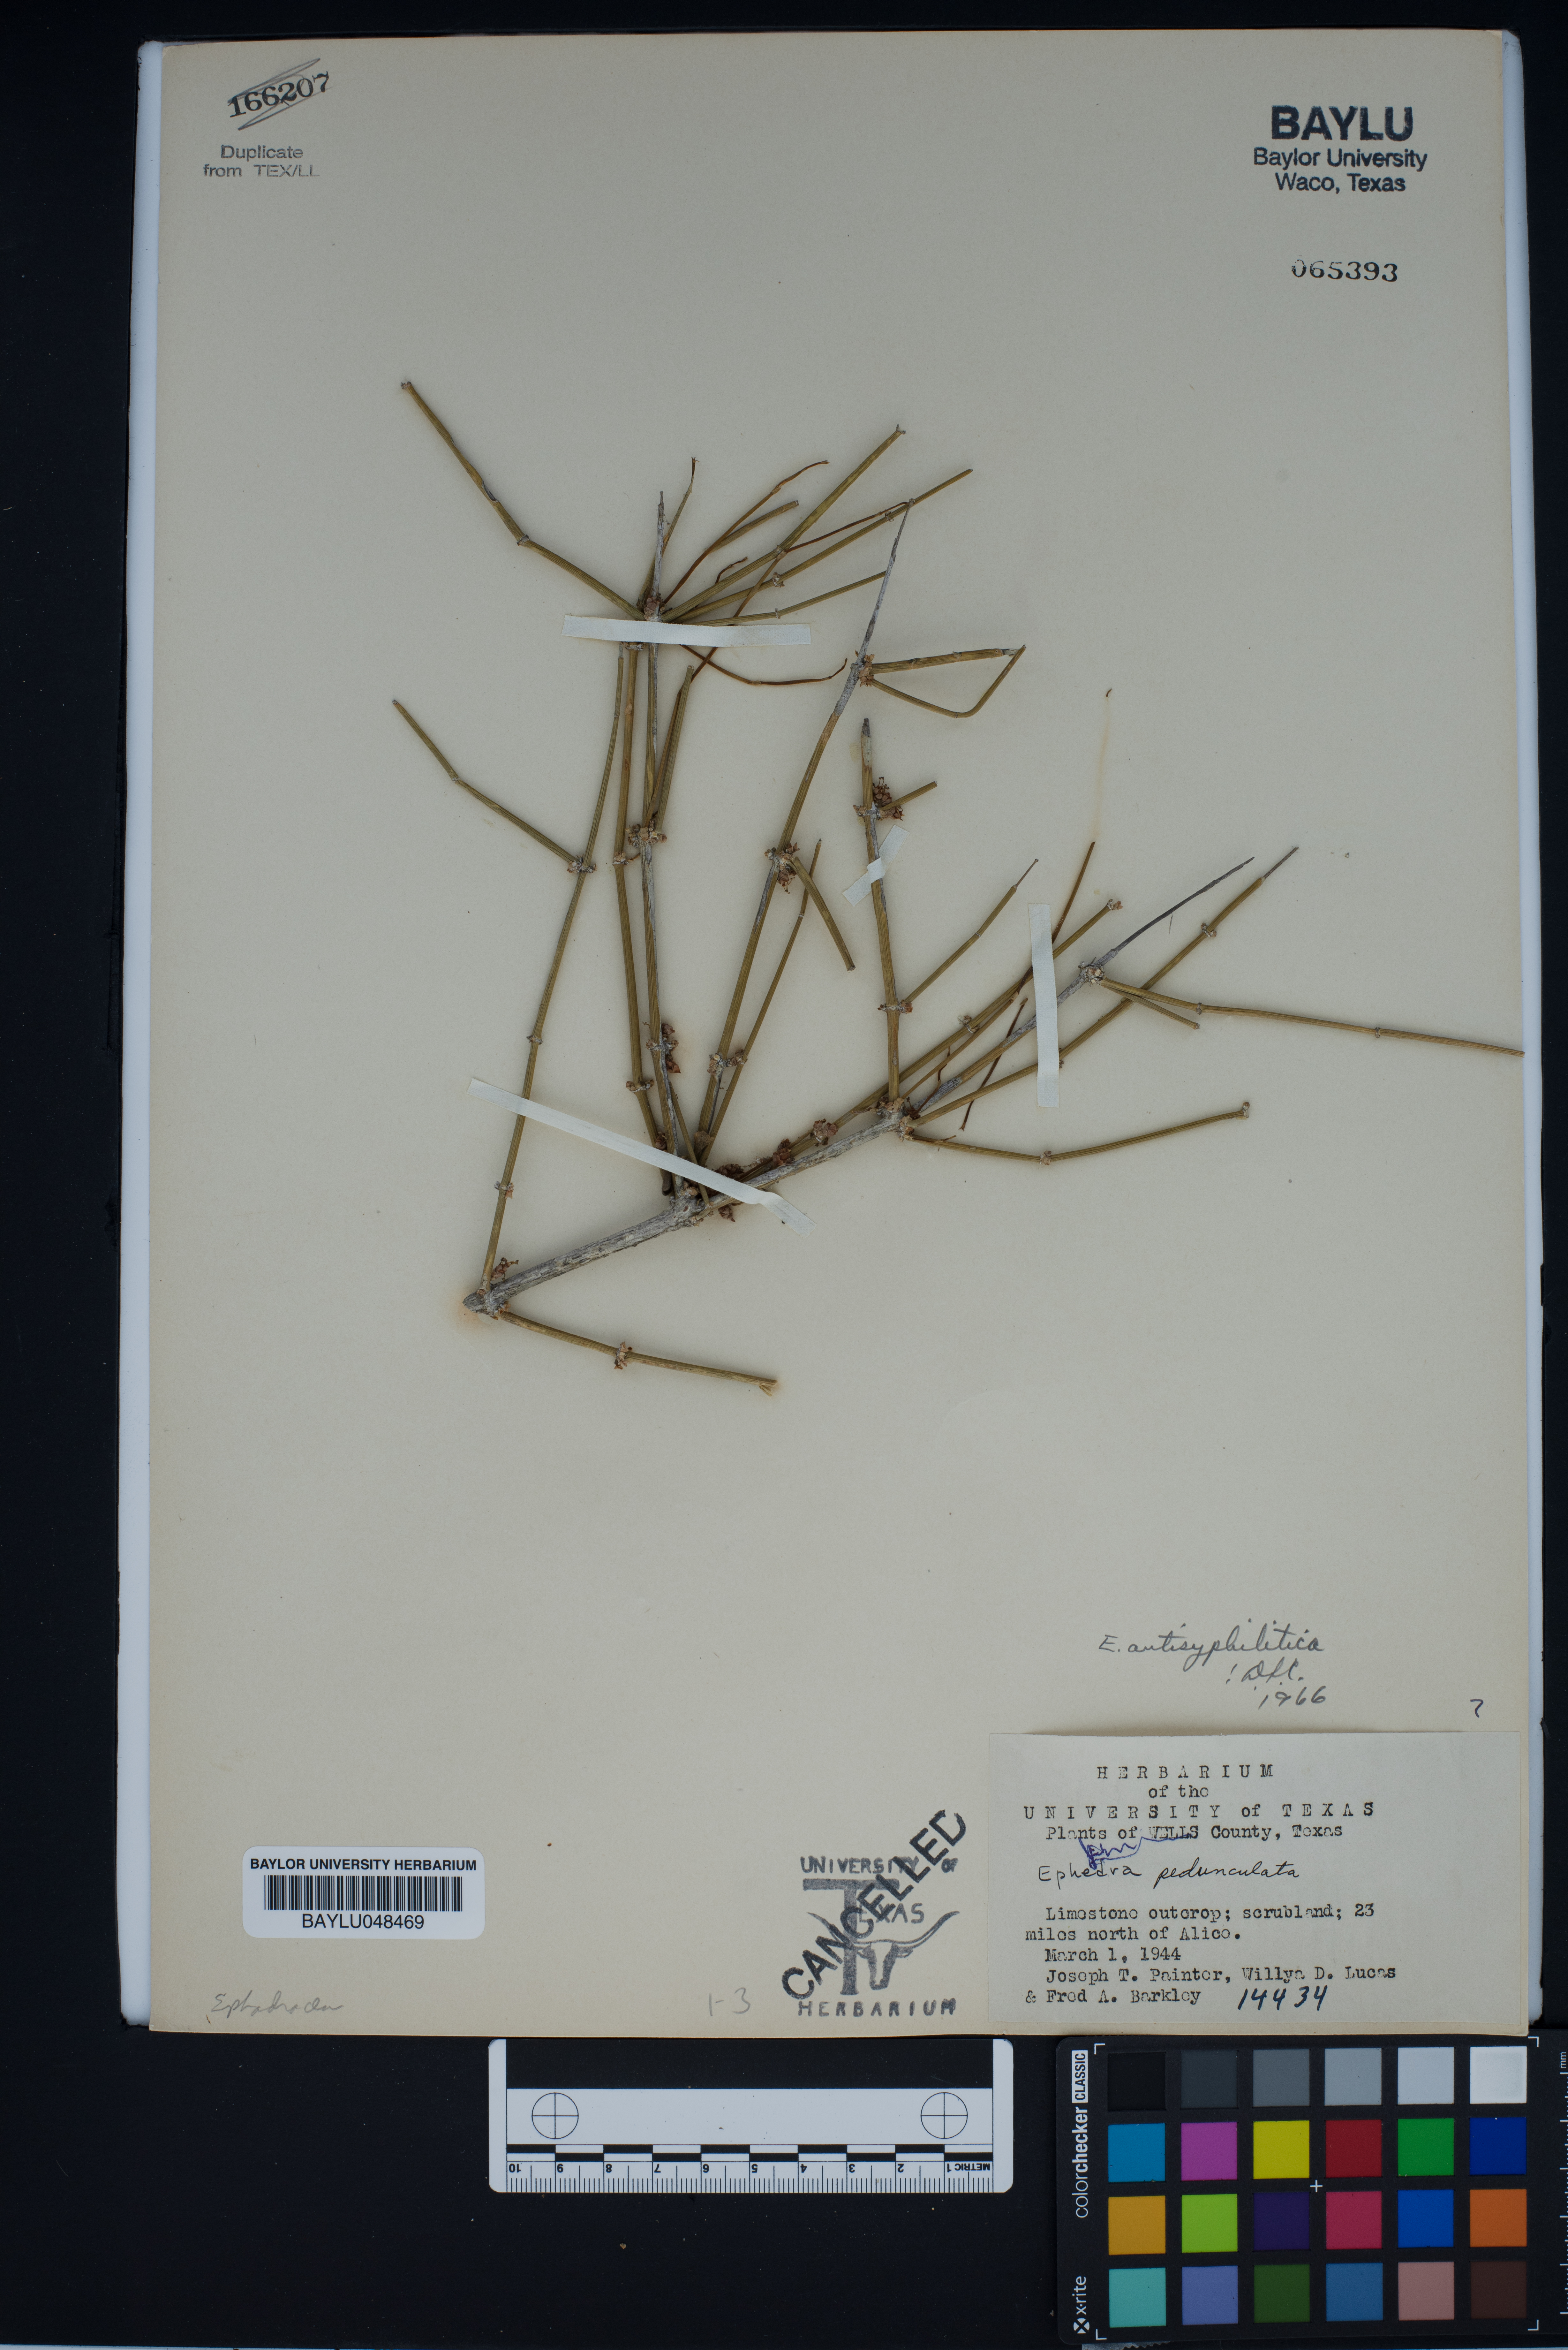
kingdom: Plantae
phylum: Tracheophyta
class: Gnetopsida
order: Ephedrales
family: Ephedraceae
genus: Ephedra
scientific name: Ephedra antisyphilitica
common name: Clipweed
